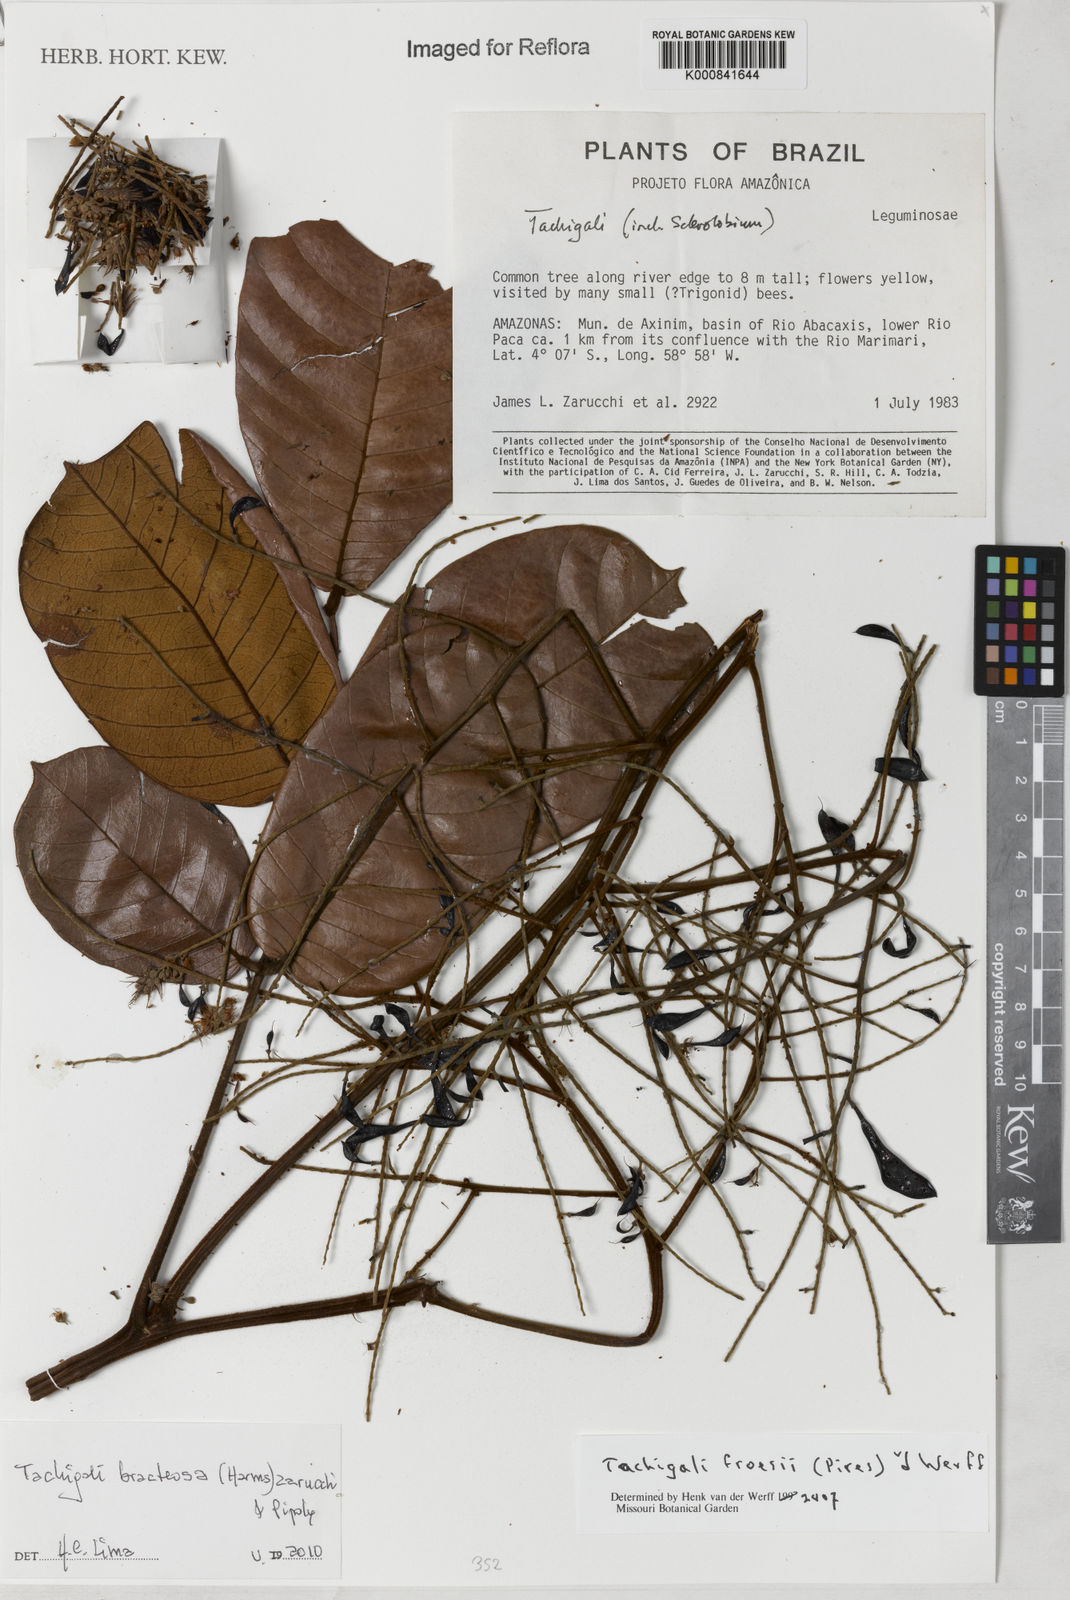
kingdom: Plantae
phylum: Tracheophyta
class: Magnoliopsida
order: Fabales
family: Fabaceae
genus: Tachigali
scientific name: Tachigali bracteosa
